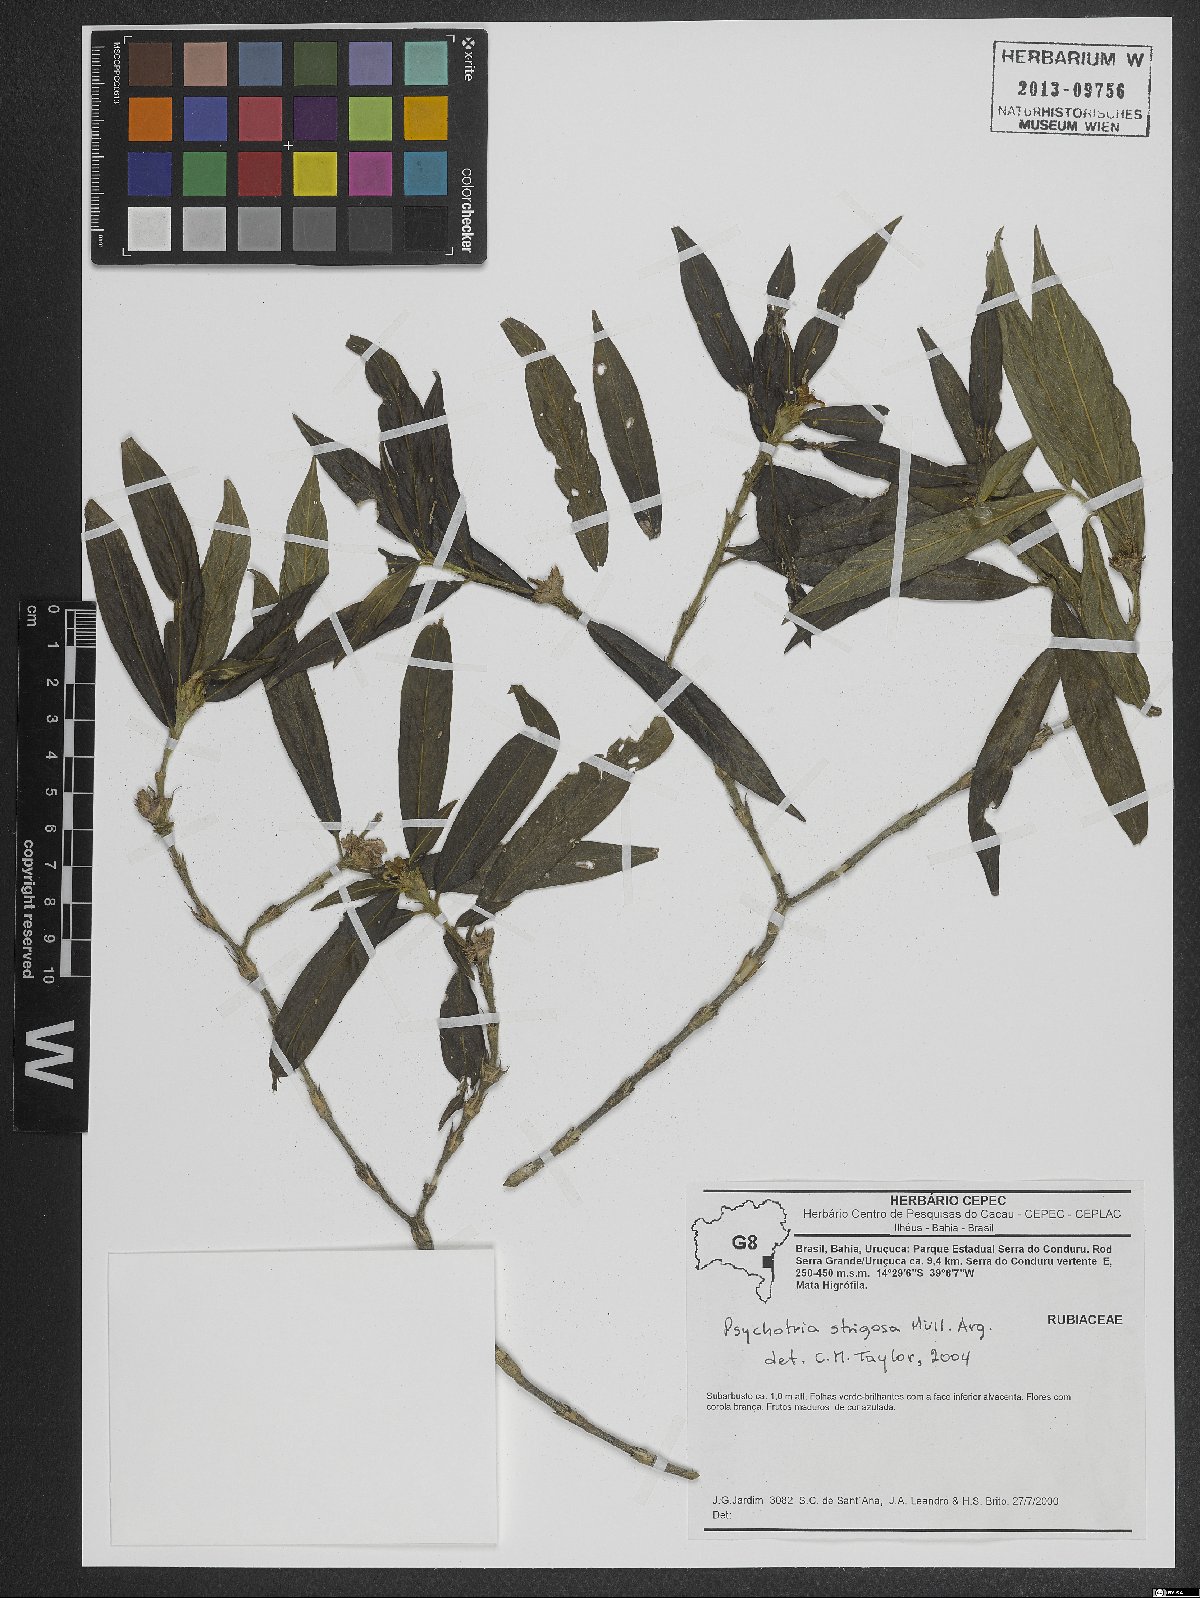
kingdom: Plantae
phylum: Tracheophyta
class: Magnoliopsida
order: Gentianales
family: Rubiaceae
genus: Psychotria
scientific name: Psychotria strigosa
